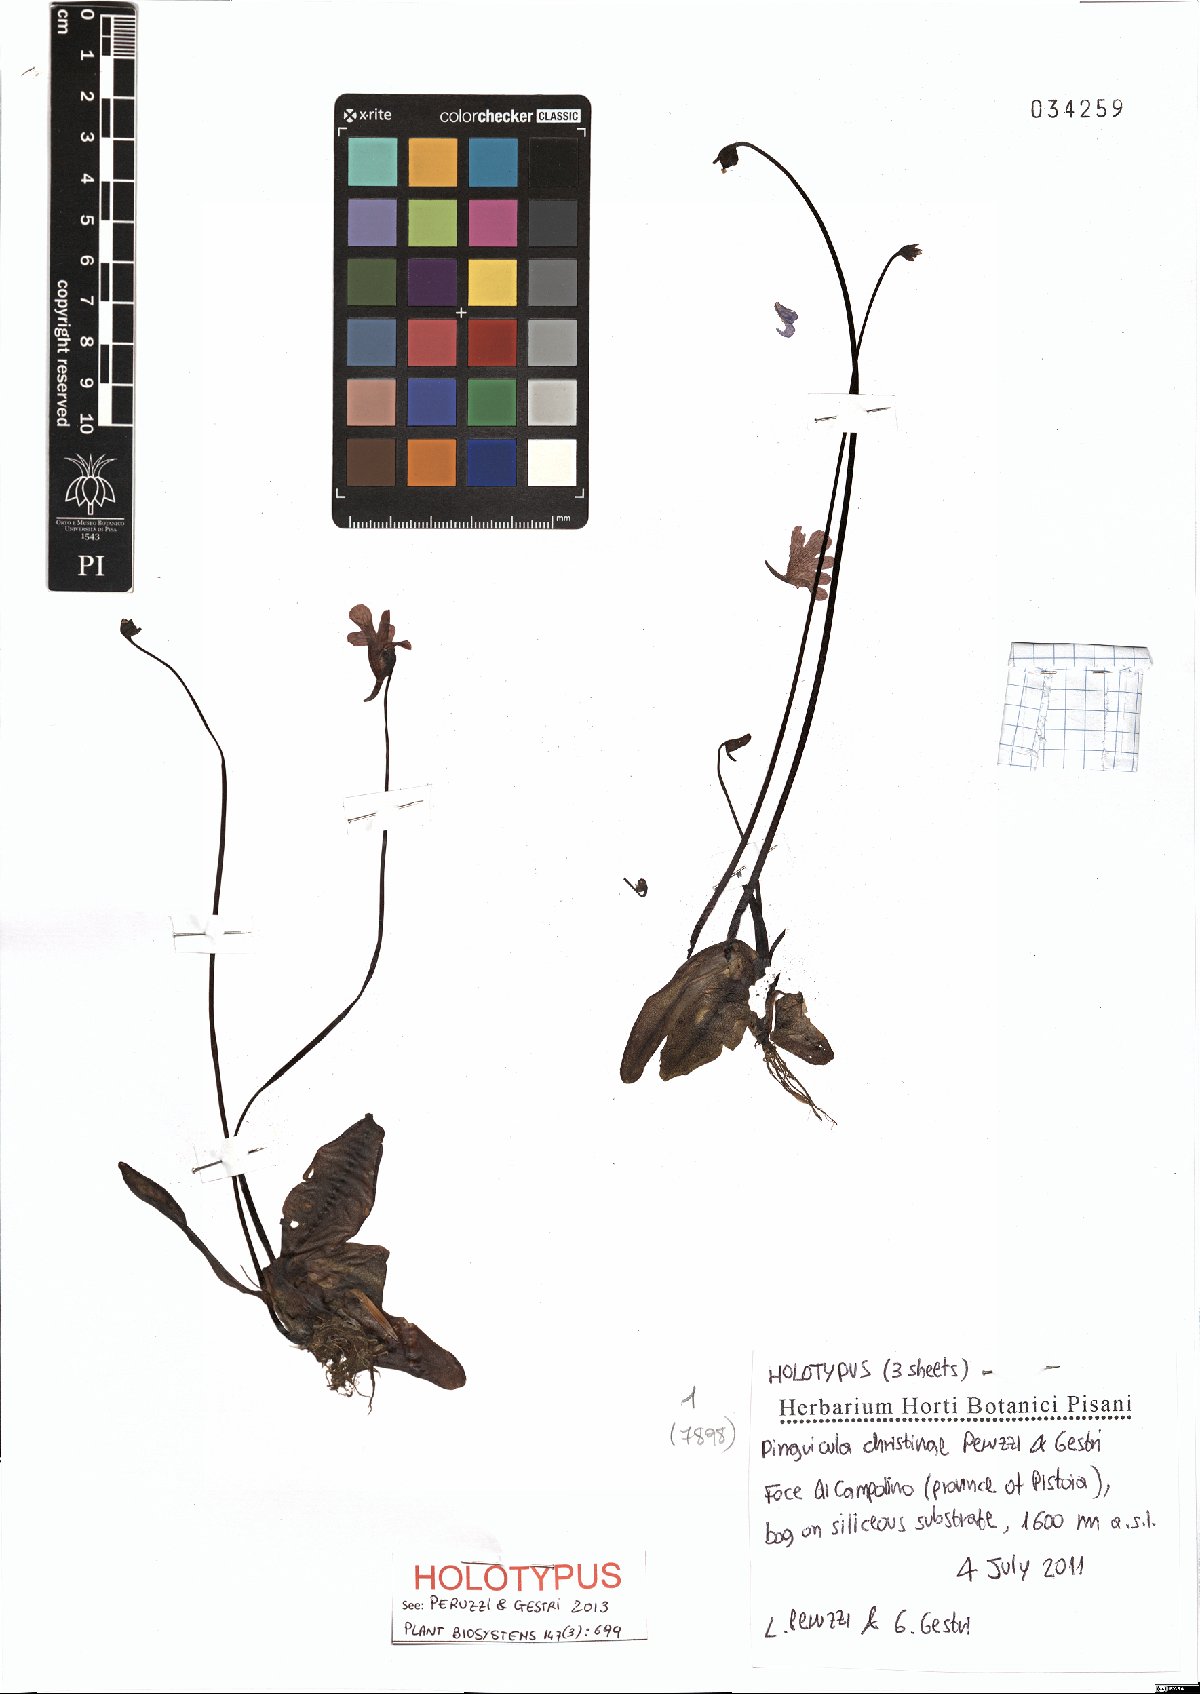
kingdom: Plantae
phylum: Tracheophyta
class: Magnoliopsida
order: Lamiales
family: Lentibulariaceae
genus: Pinguicula
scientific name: Pinguicula christinae
